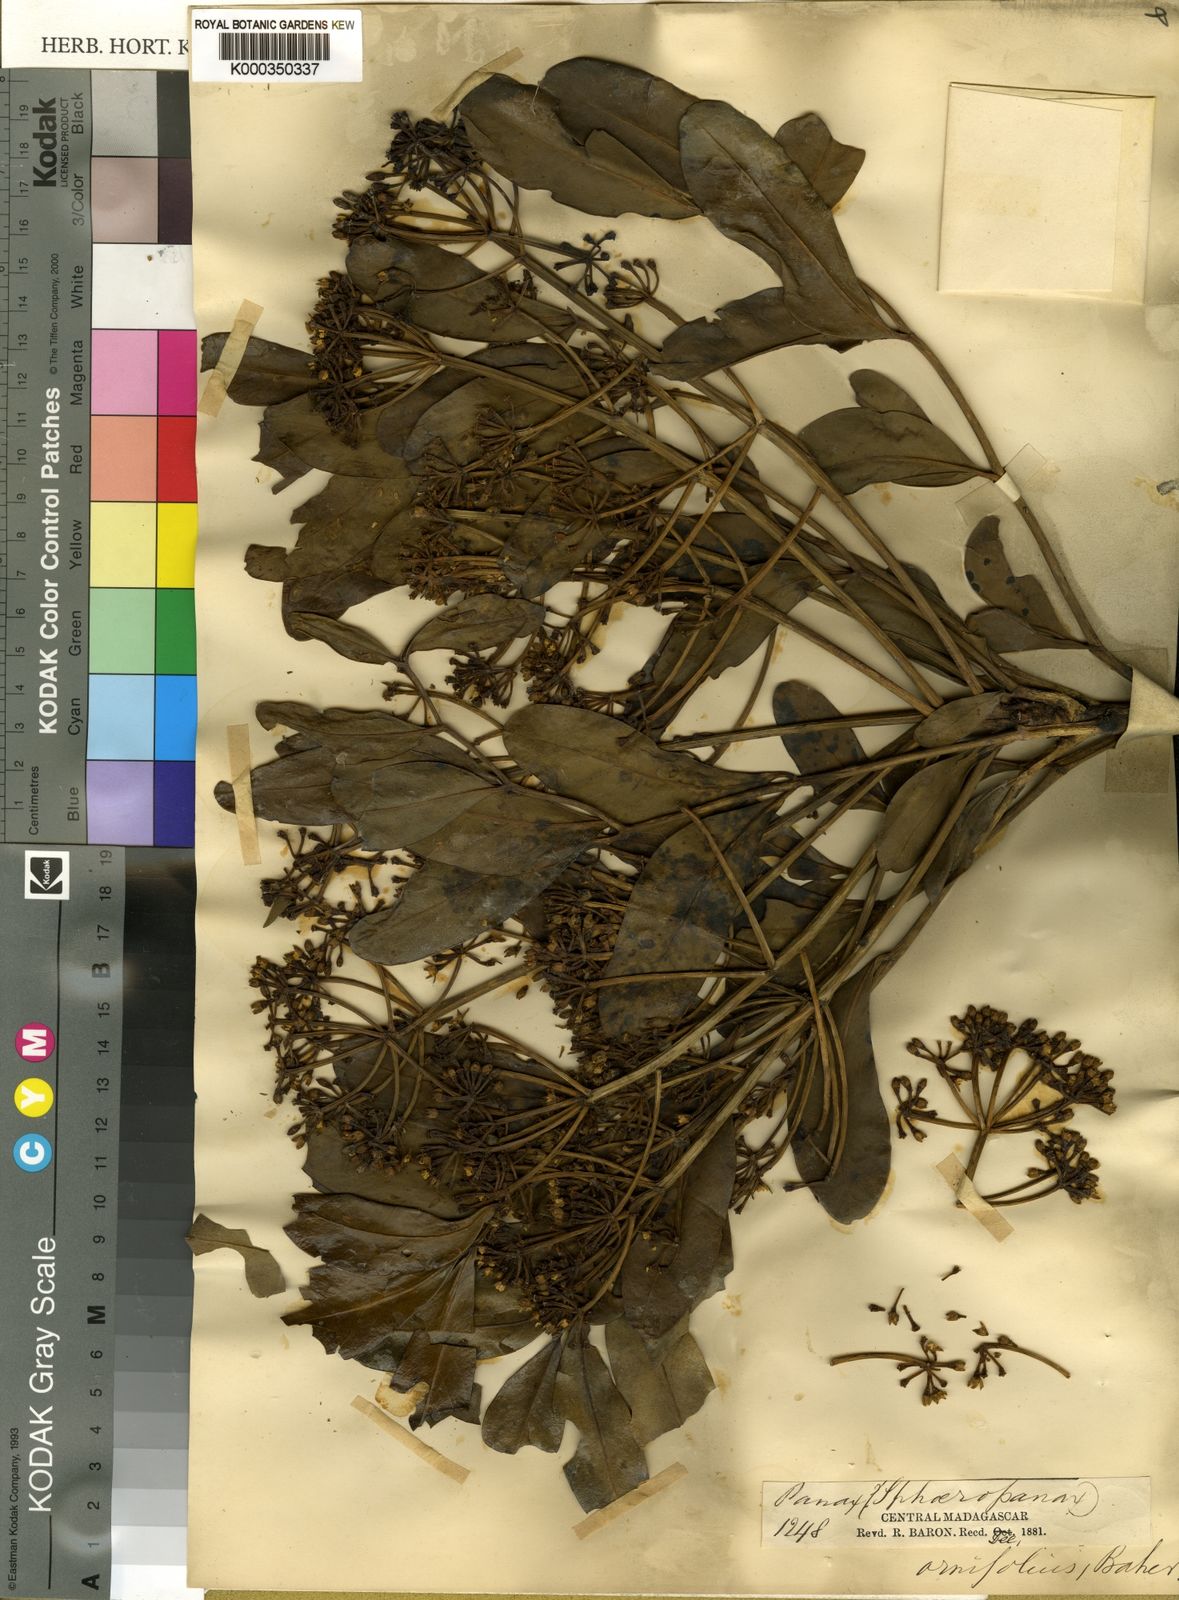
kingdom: Plantae
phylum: Tracheophyta
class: Magnoliopsida
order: Apiales
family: Araliaceae
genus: Polyscias
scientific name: Polyscias ornifolia
